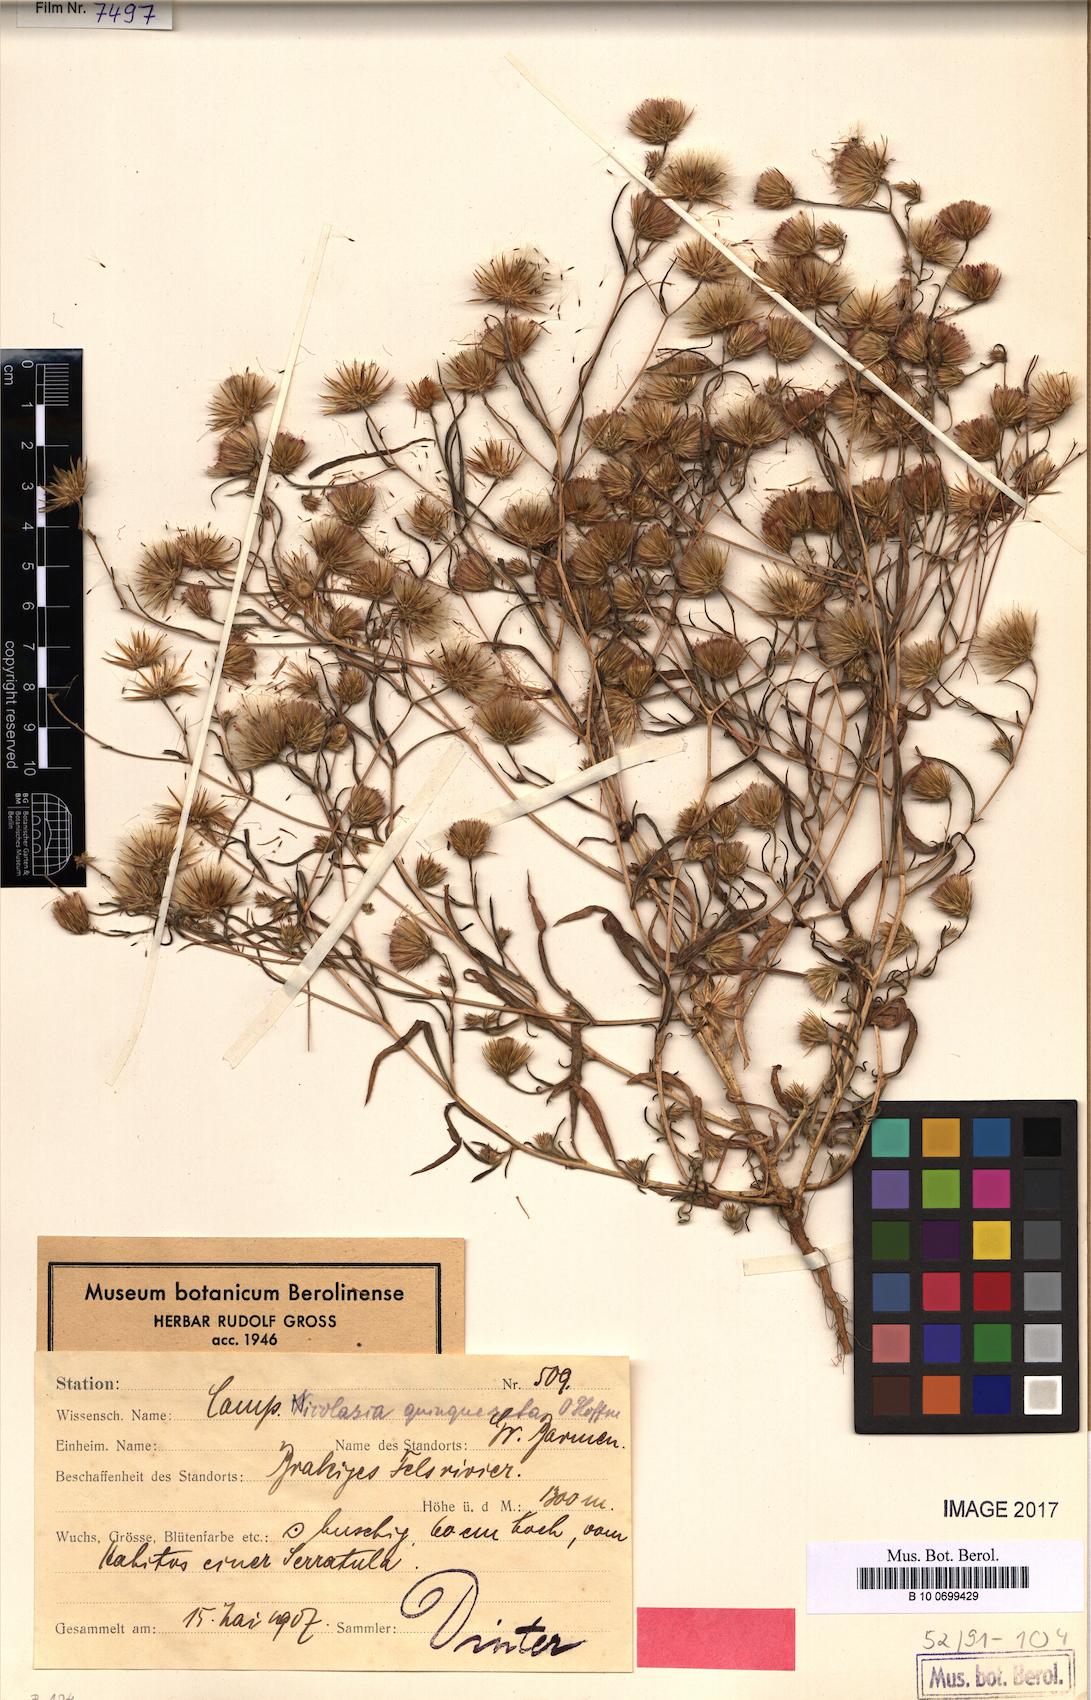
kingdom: Plantae
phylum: Tracheophyta
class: Magnoliopsida
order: Asterales
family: Asteraceae
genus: Nicolasia
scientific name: Nicolasia nitens
